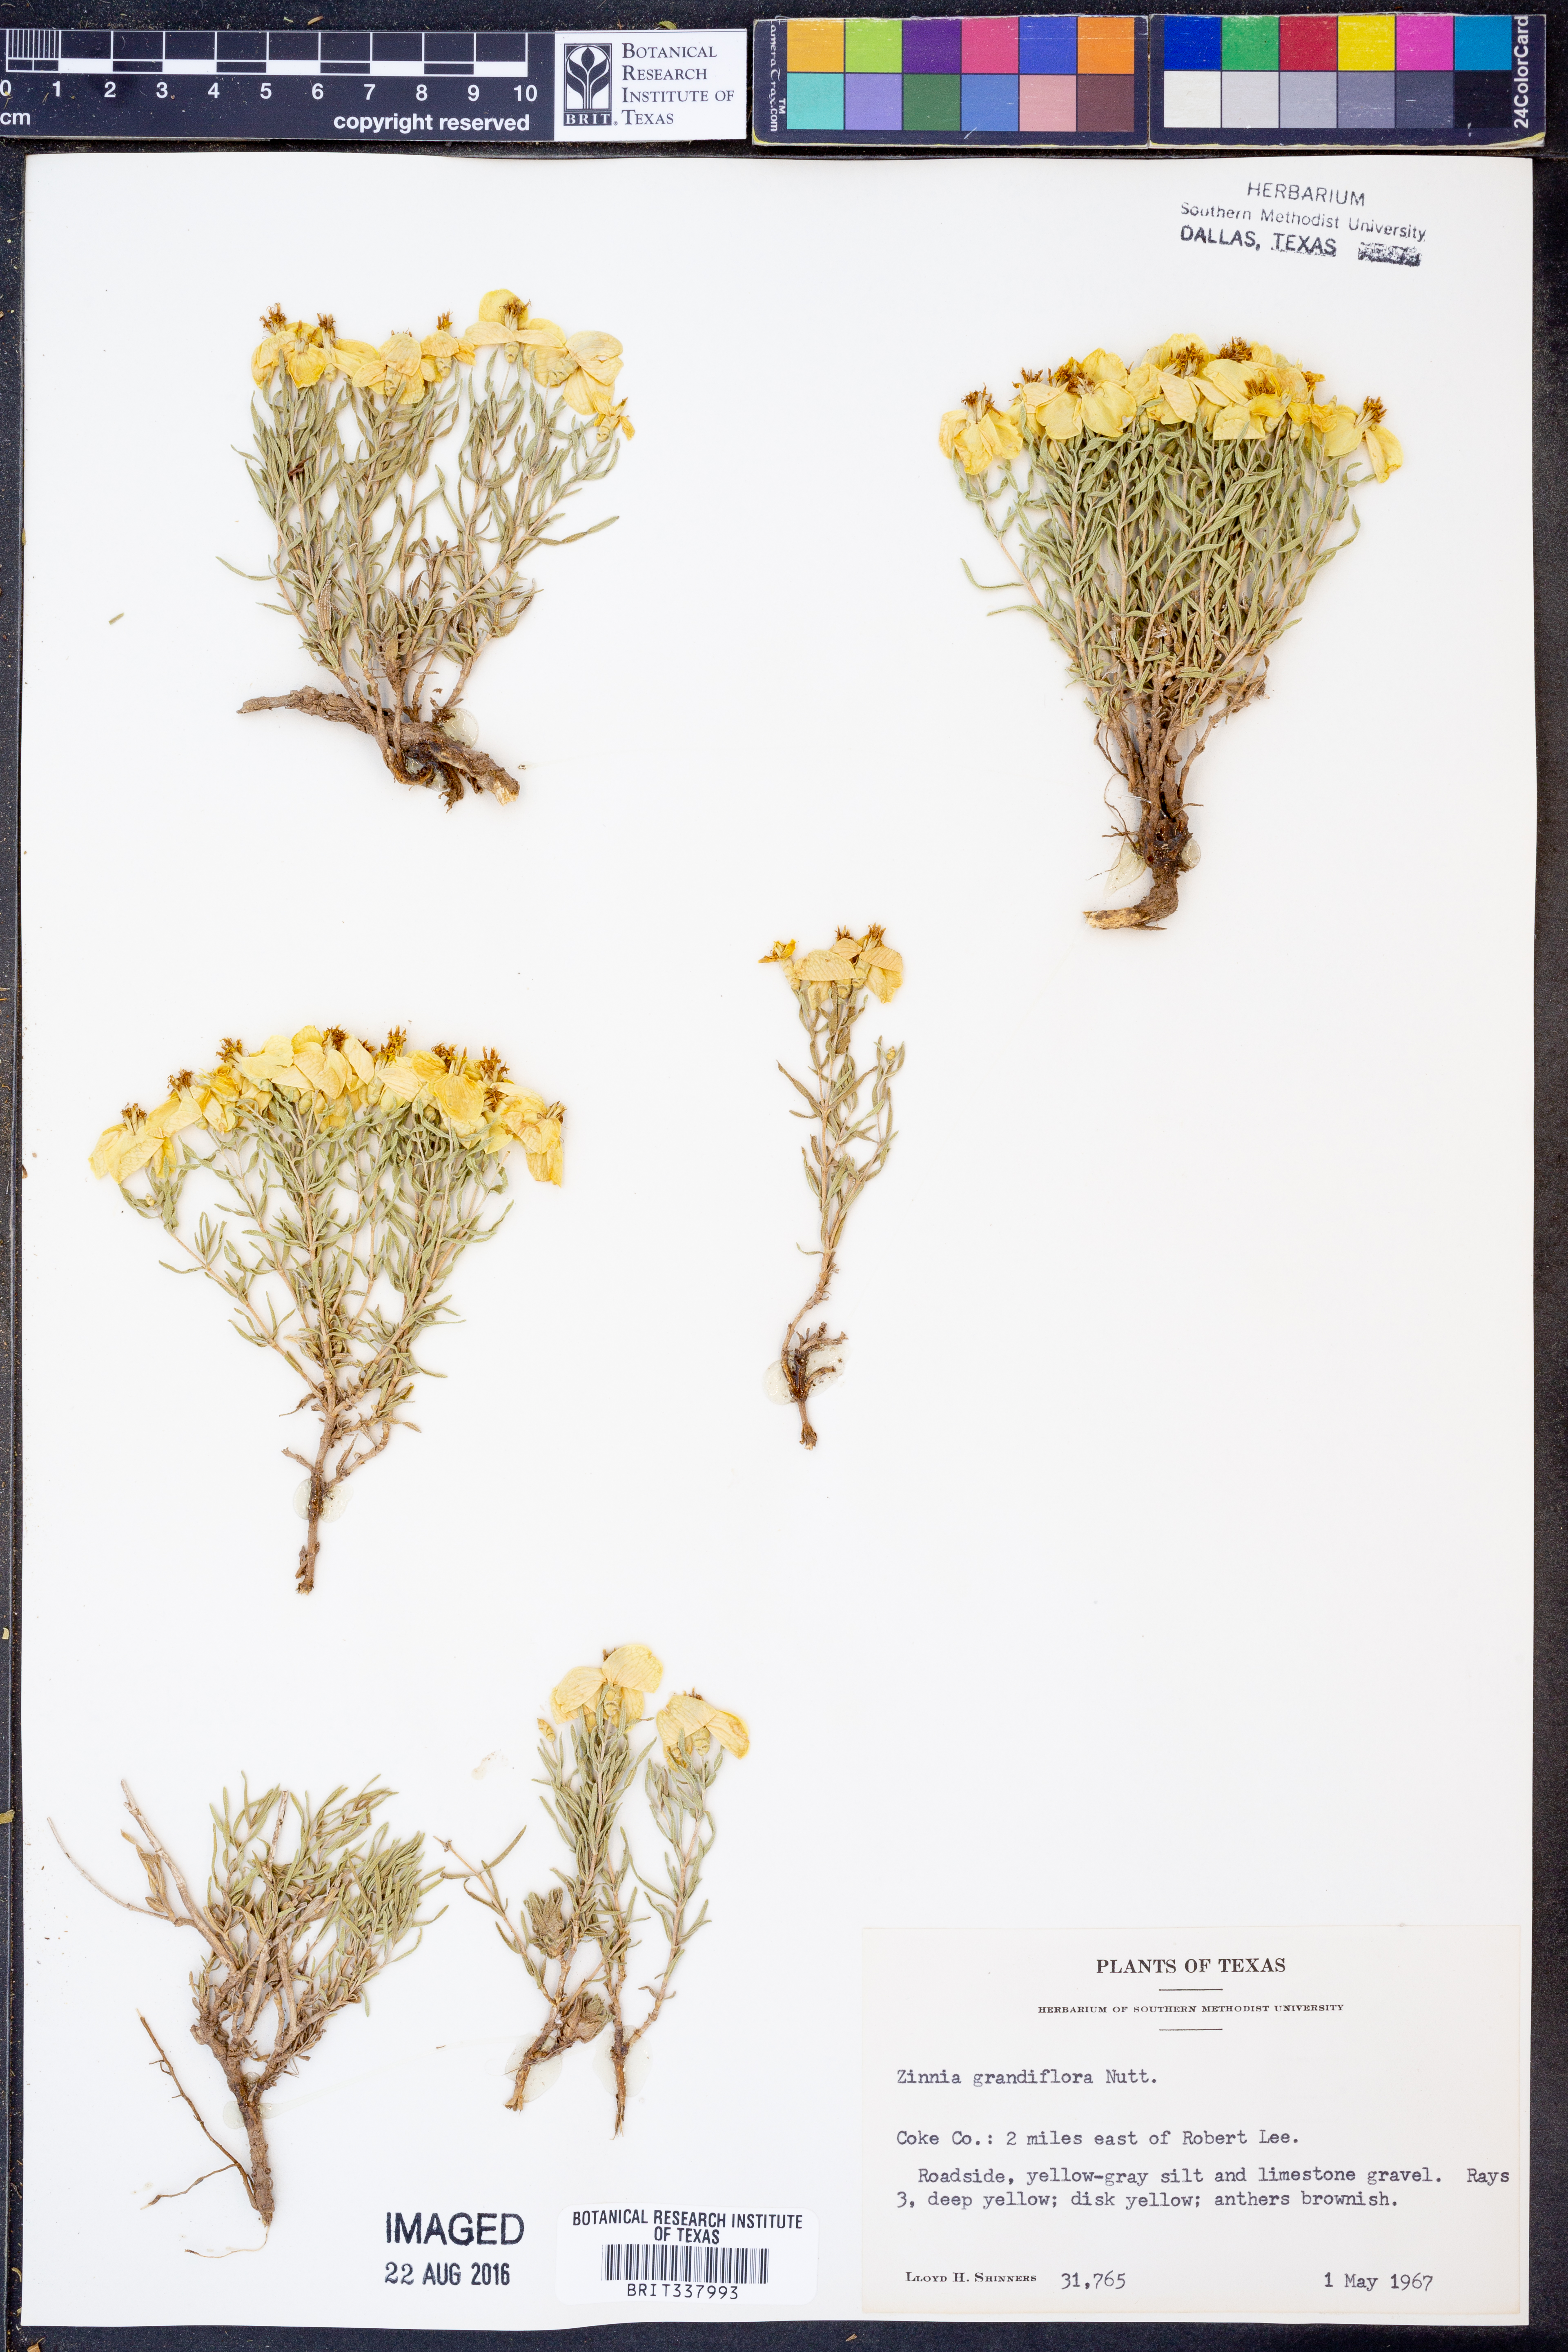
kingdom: Plantae
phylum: Tracheophyta
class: Magnoliopsida
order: Asterales
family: Asteraceae
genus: Zinnia
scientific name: Zinnia grandiflora
